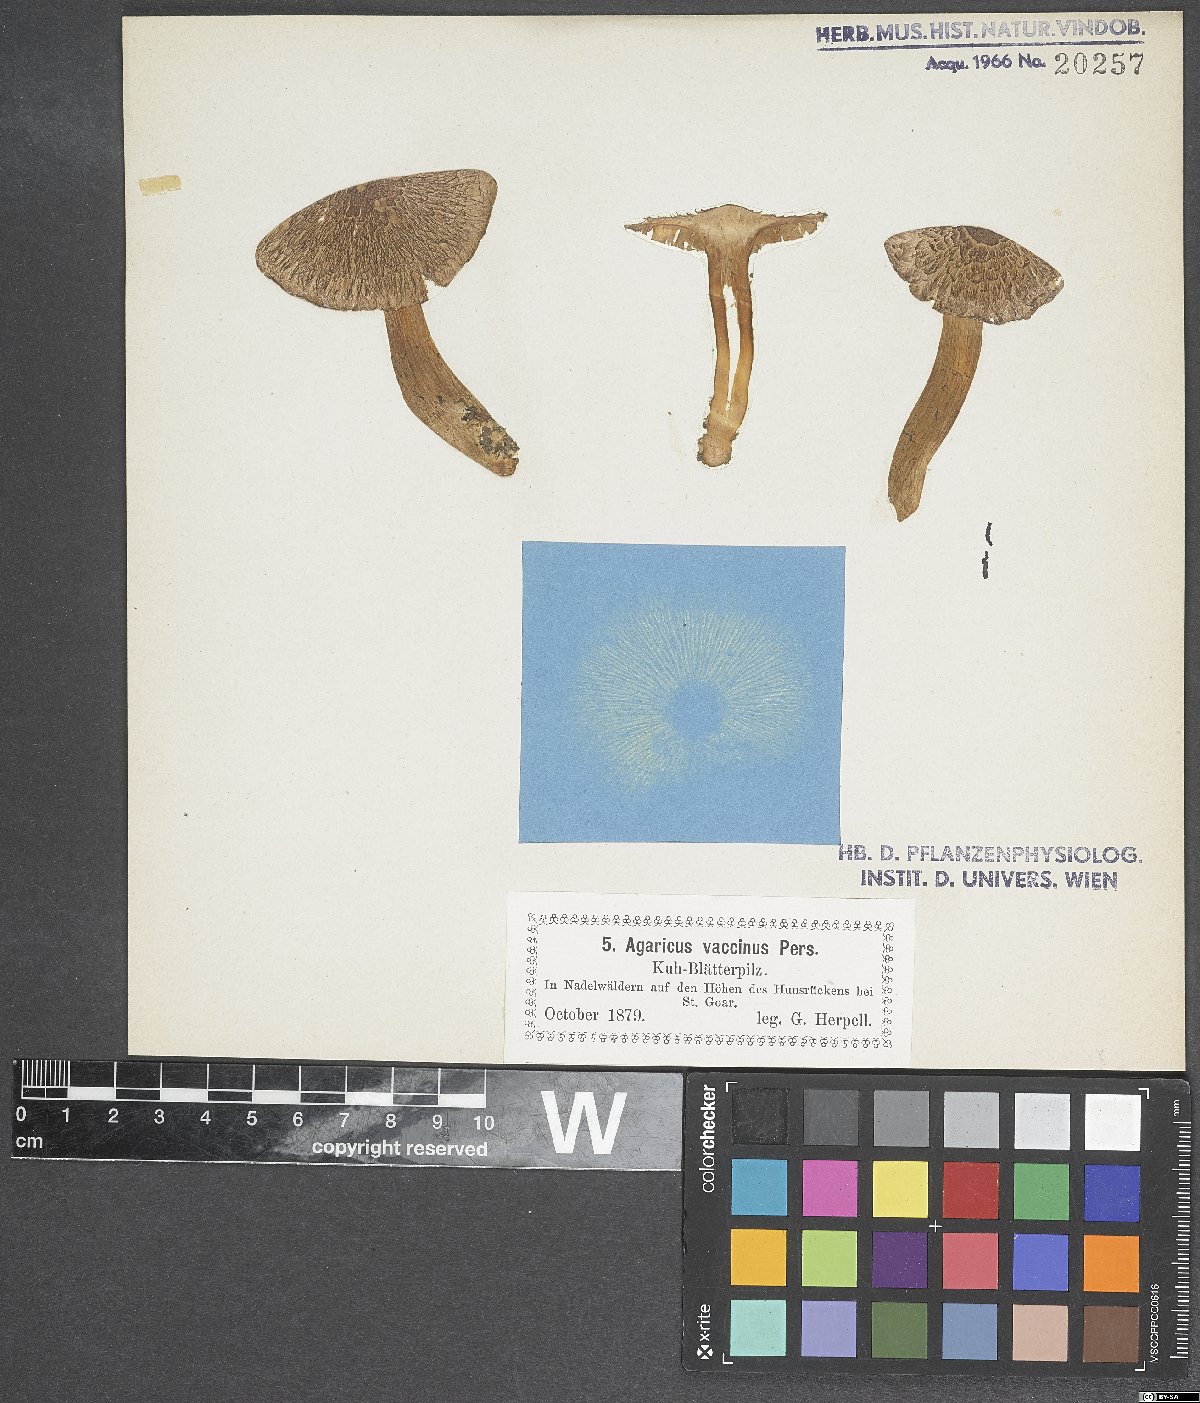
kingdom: Fungi
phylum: Basidiomycota
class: Agaricomycetes
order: Agaricales
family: Tricholomataceae
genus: Tricholoma
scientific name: Tricholoma vaccinum
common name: Scaly knight
